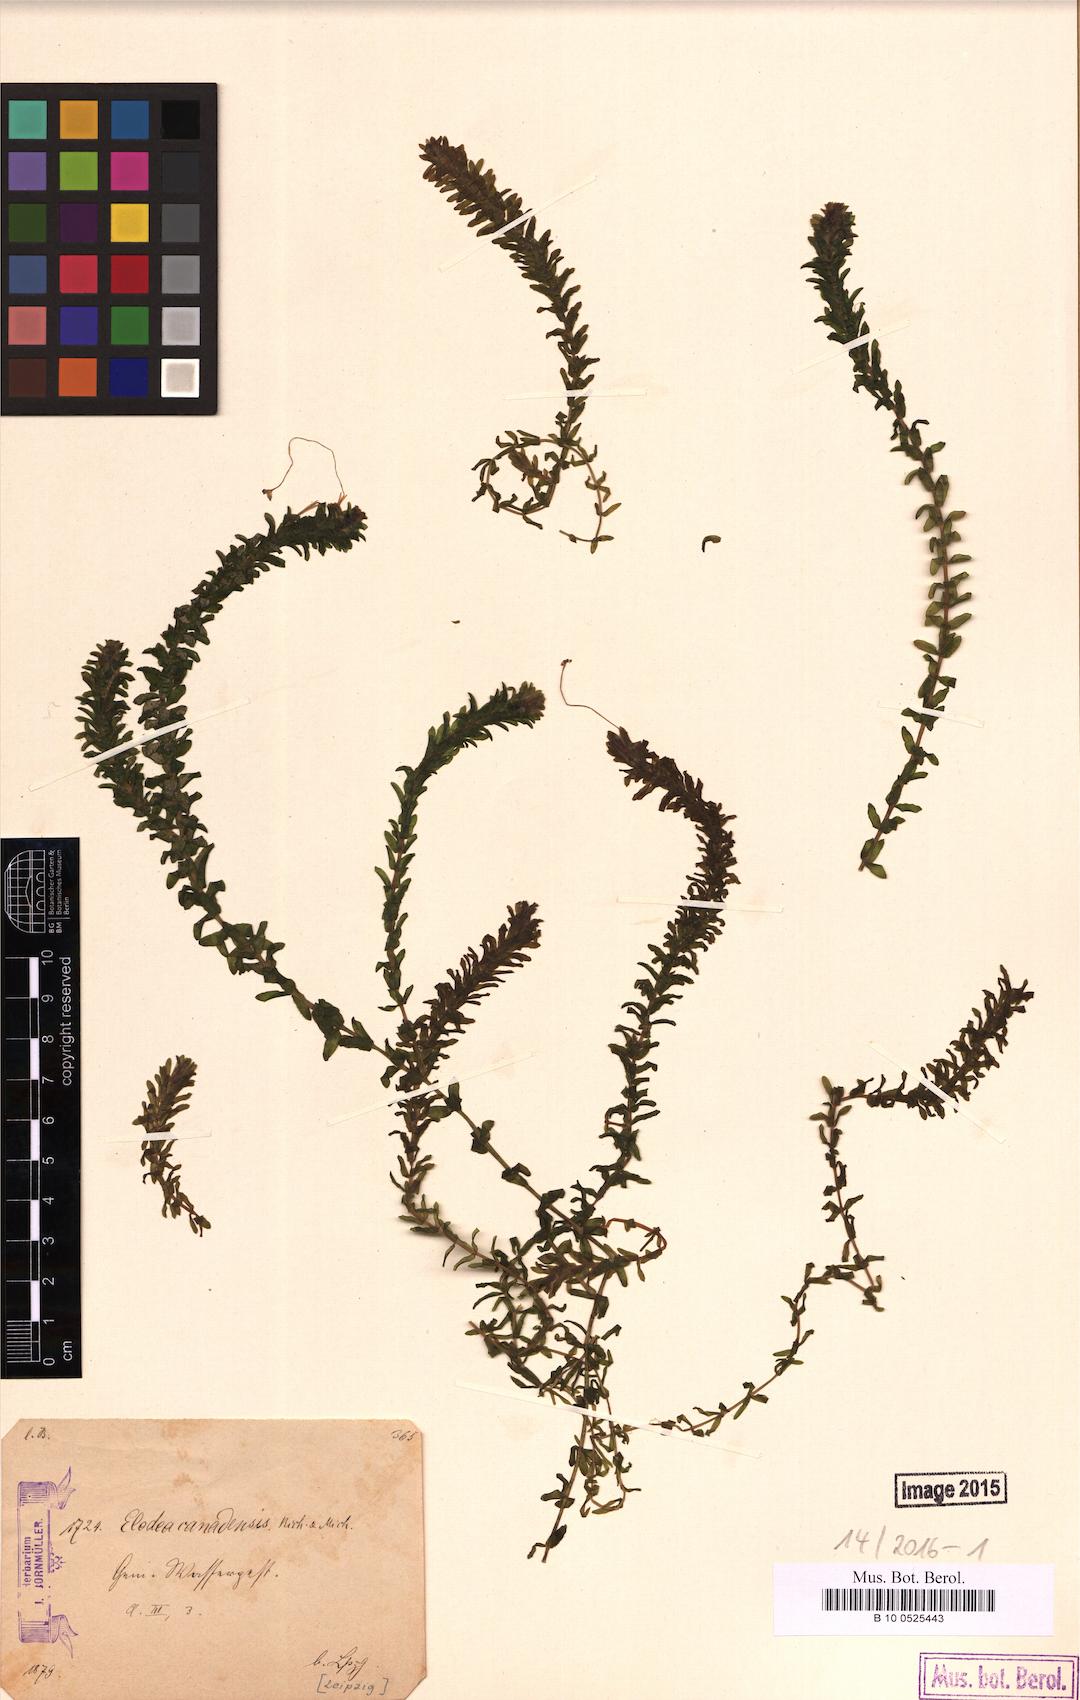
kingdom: Plantae
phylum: Tracheophyta
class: Liliopsida
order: Alismatales
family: Hydrocharitaceae
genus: Elodea
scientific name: Elodea canadensis
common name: Canadian waterweed
